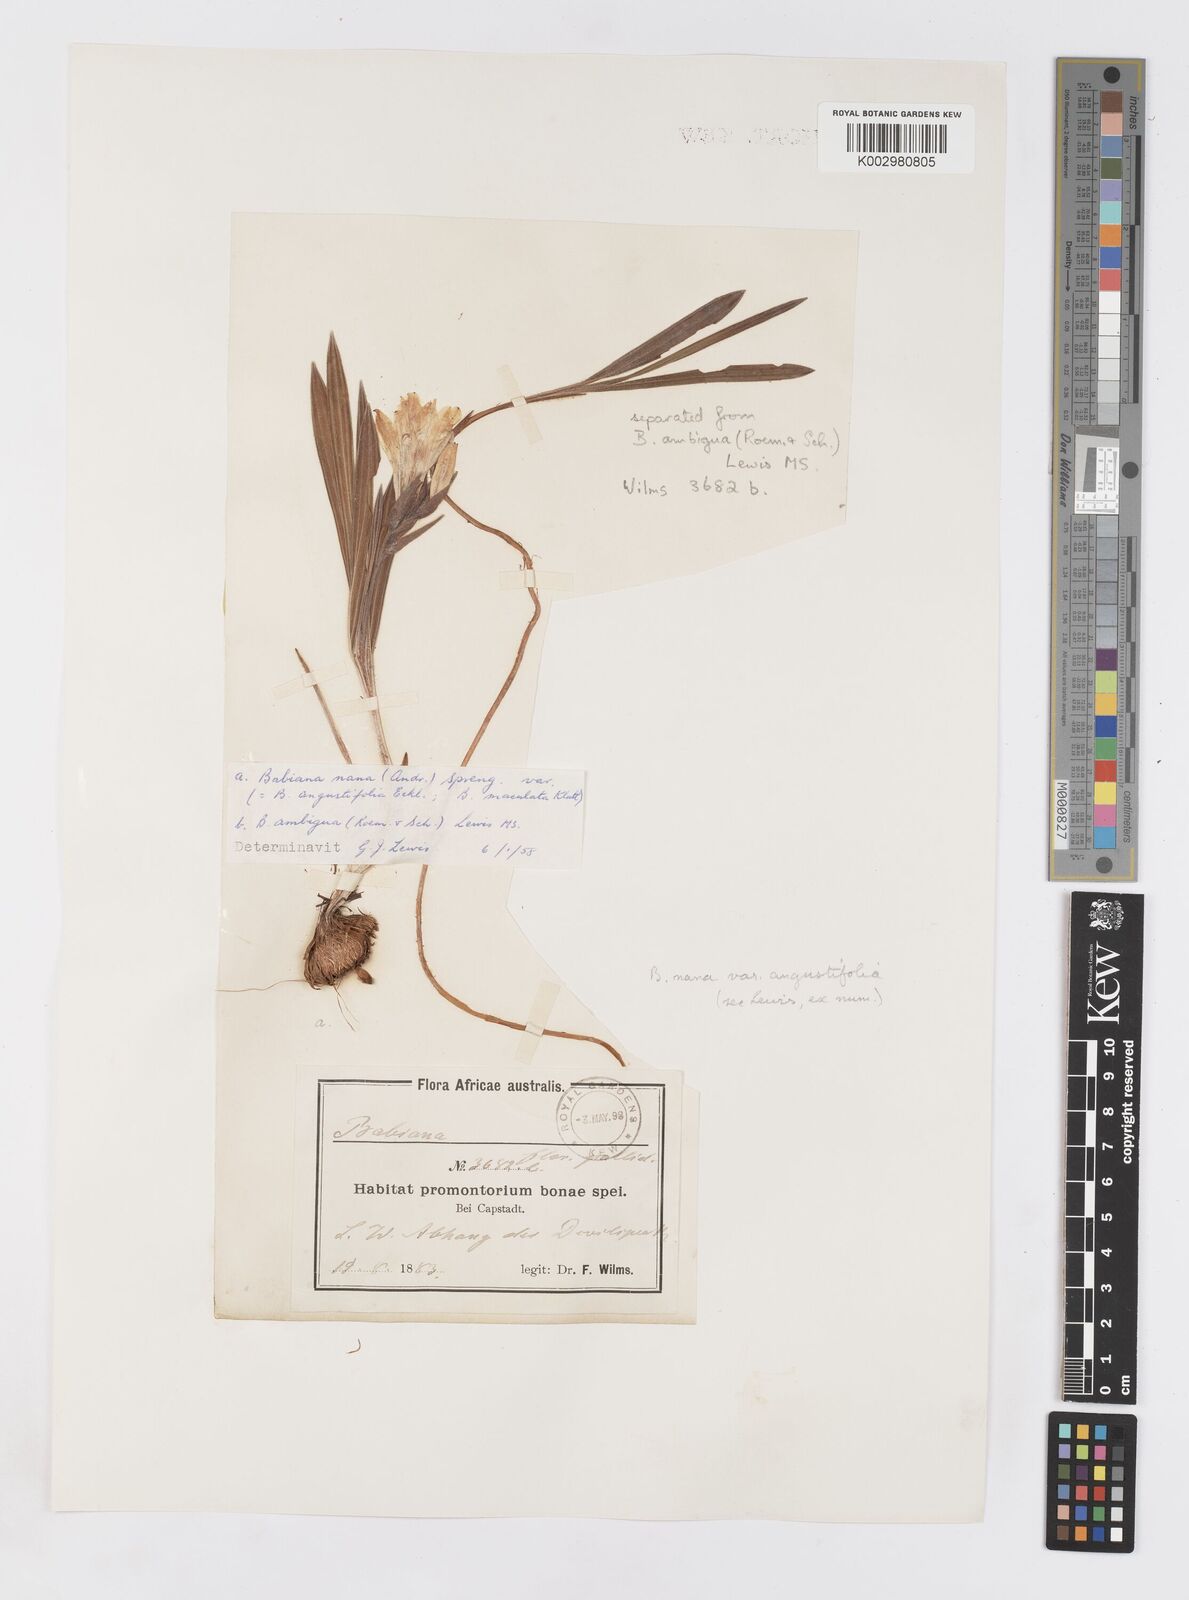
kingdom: Plantae
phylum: Tracheophyta
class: Liliopsida
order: Asparagales
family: Iridaceae
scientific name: Iridaceae
